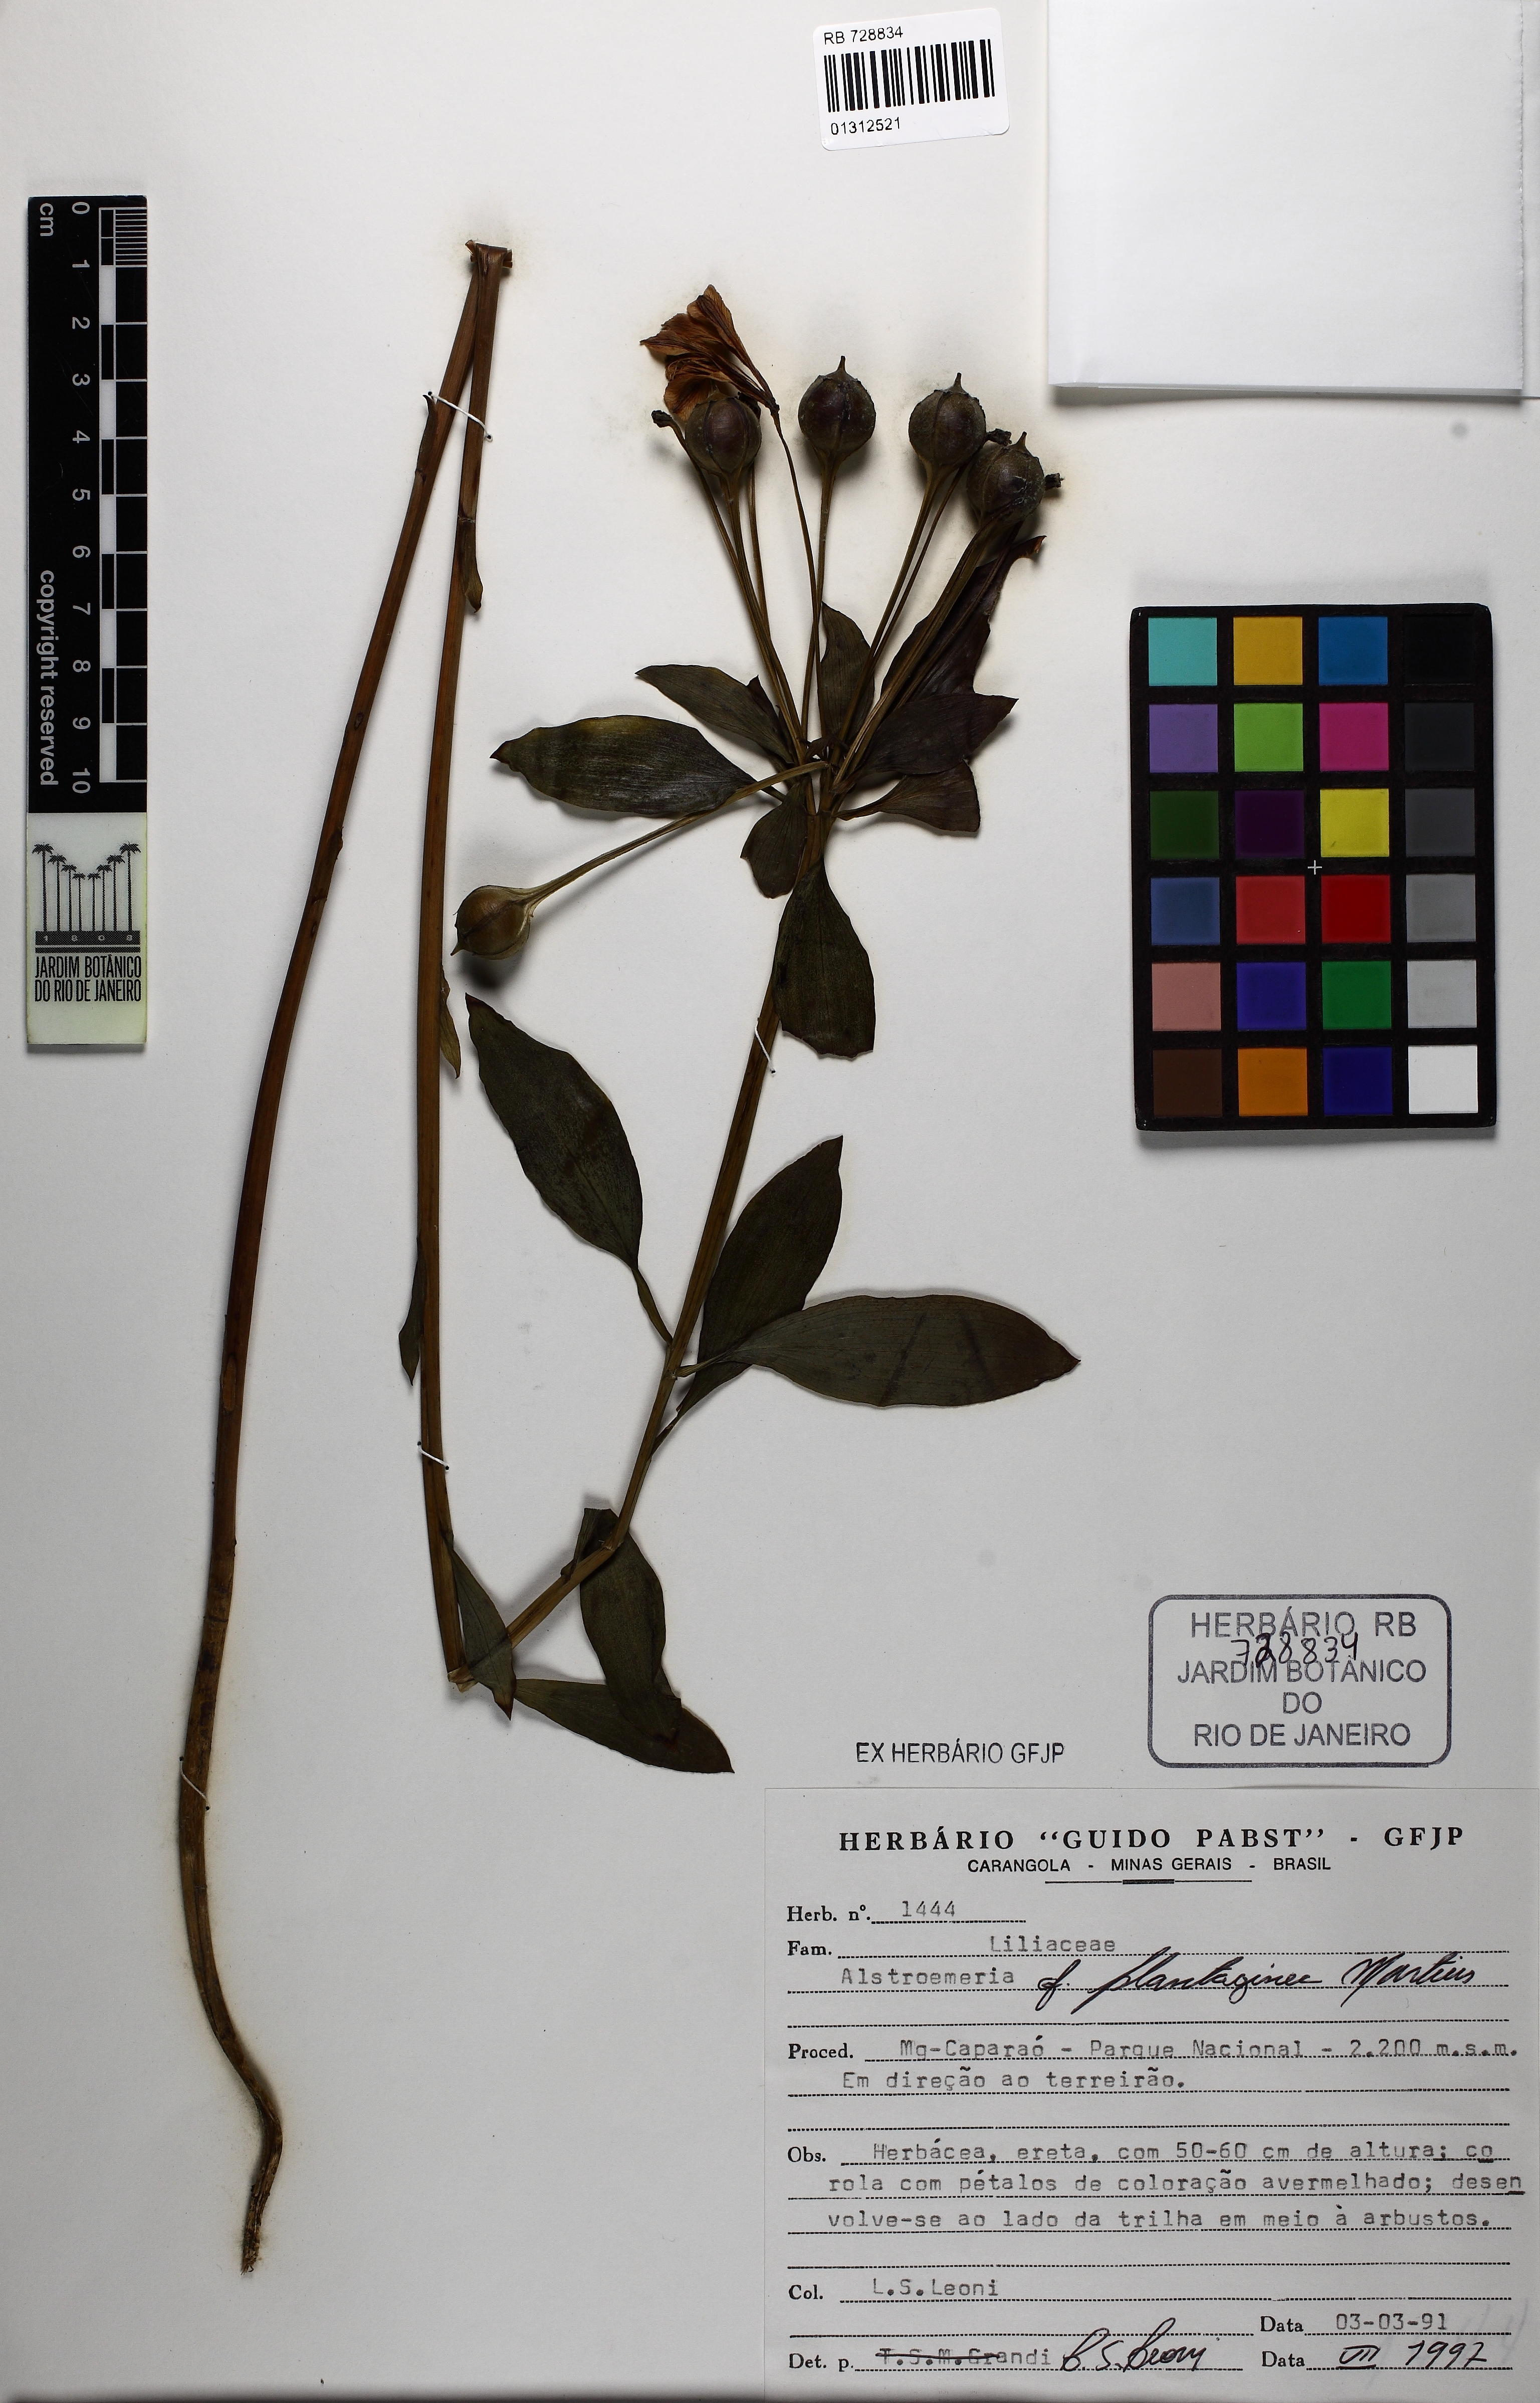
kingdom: Plantae
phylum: Tracheophyta
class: Liliopsida
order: Liliales
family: Alstroemeriaceae
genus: Alstroemeria
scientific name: Alstroemeria plantaginea
